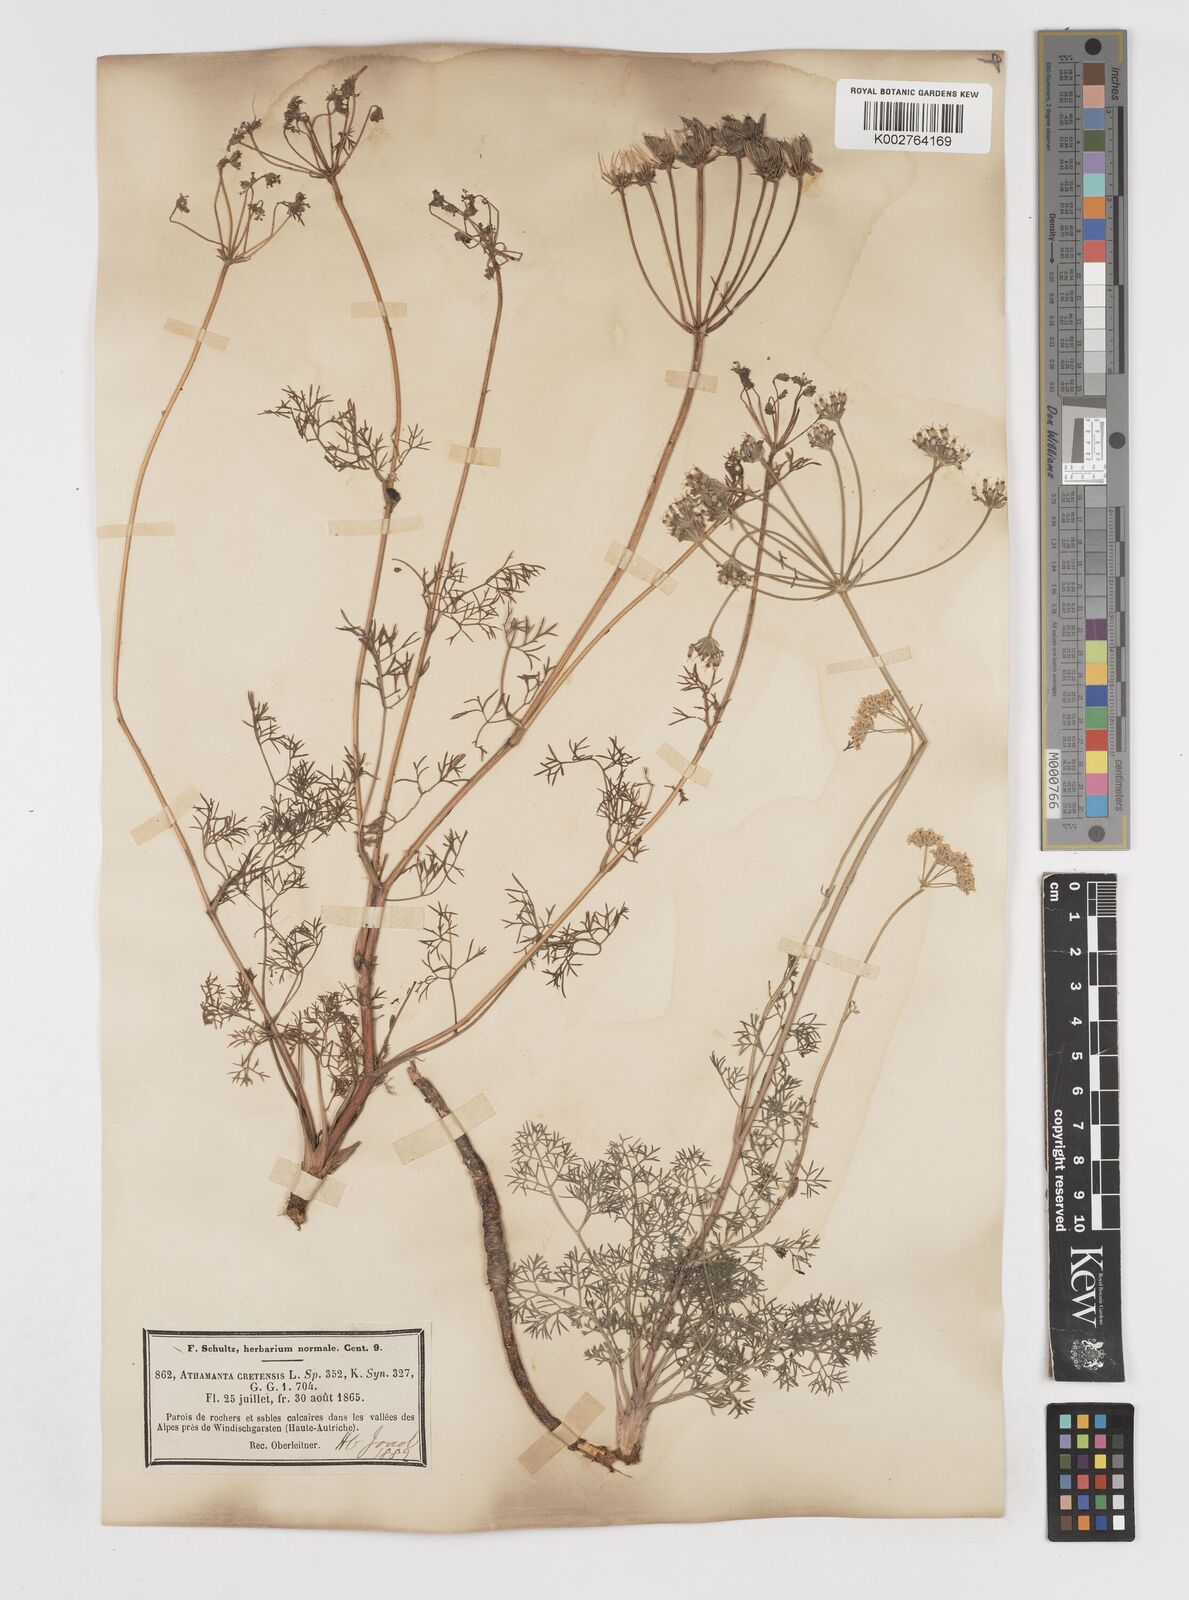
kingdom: Plantae
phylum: Tracheophyta
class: Magnoliopsida
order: Apiales
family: Apiaceae
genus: Athamanta
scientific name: Athamanta cretensis
